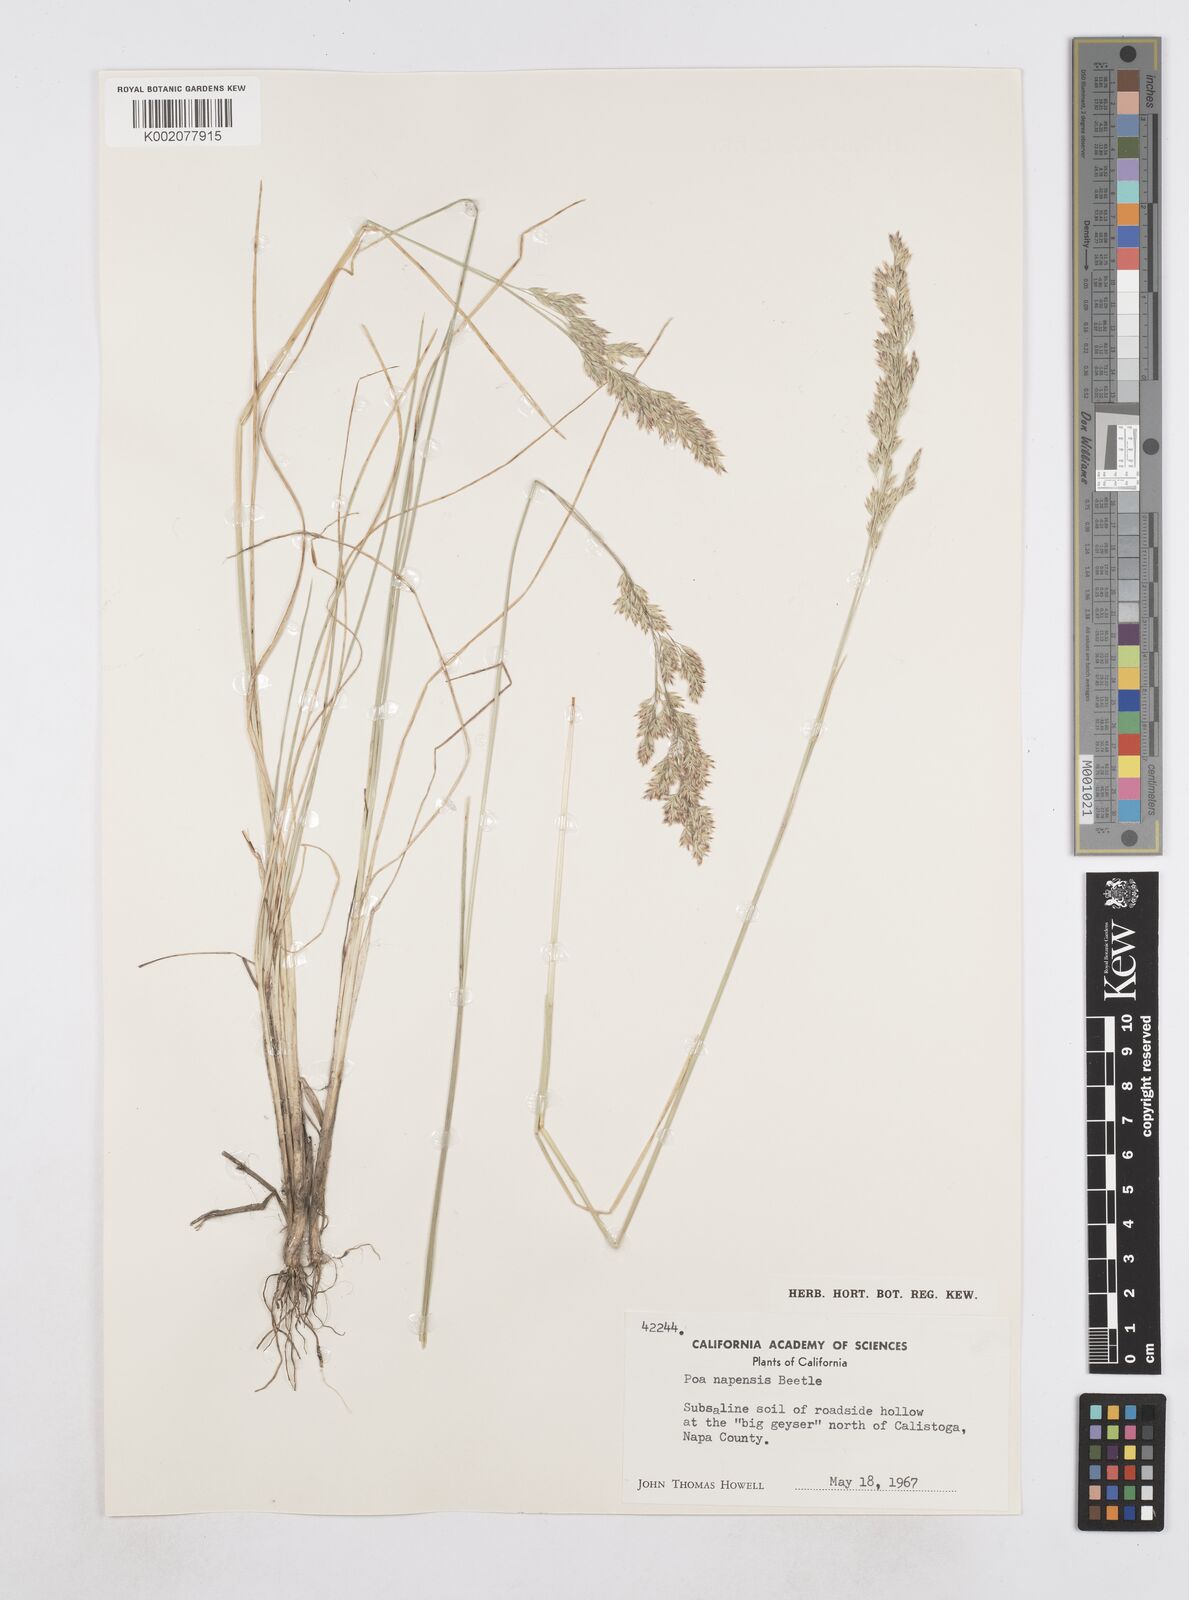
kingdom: Plantae
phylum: Tracheophyta
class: Liliopsida
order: Poales
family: Poaceae
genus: Poa
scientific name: Poa napensis
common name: Napa bluegrass
